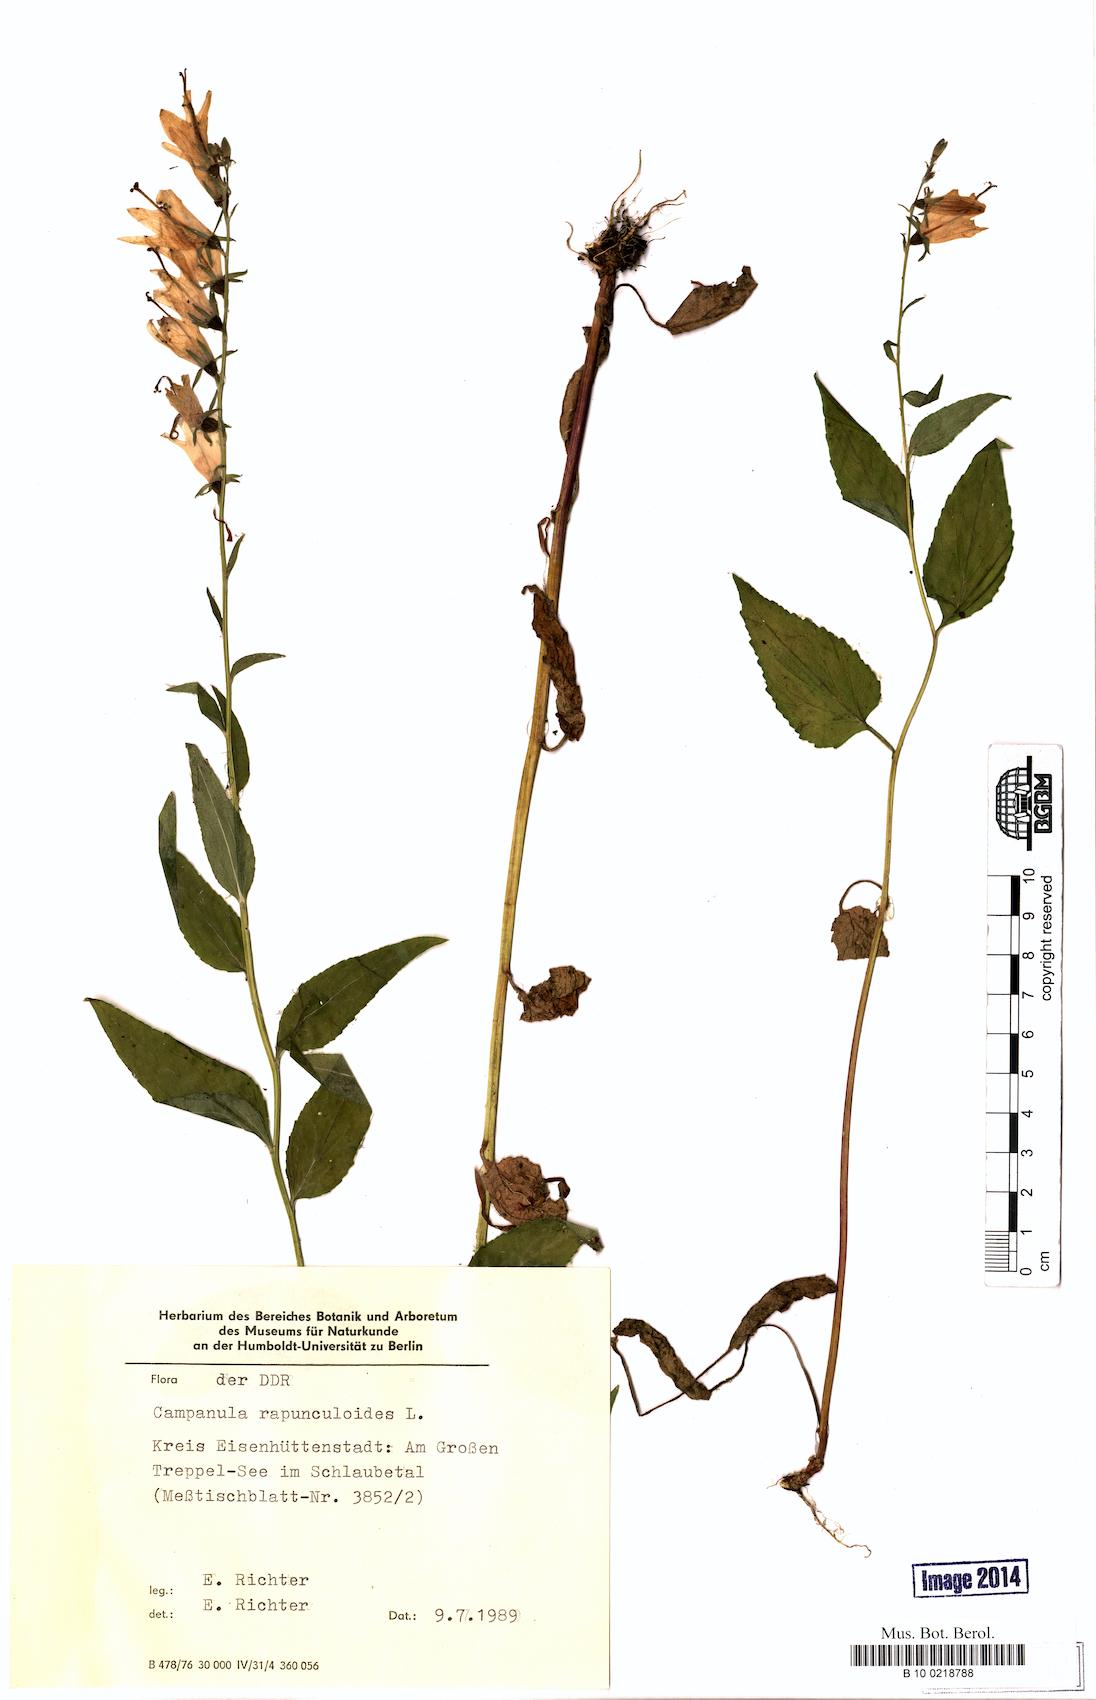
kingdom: Plantae
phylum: Tracheophyta
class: Magnoliopsida
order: Asterales
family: Campanulaceae
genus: Campanula
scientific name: Campanula rapunculoides
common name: Creeping bellflower
